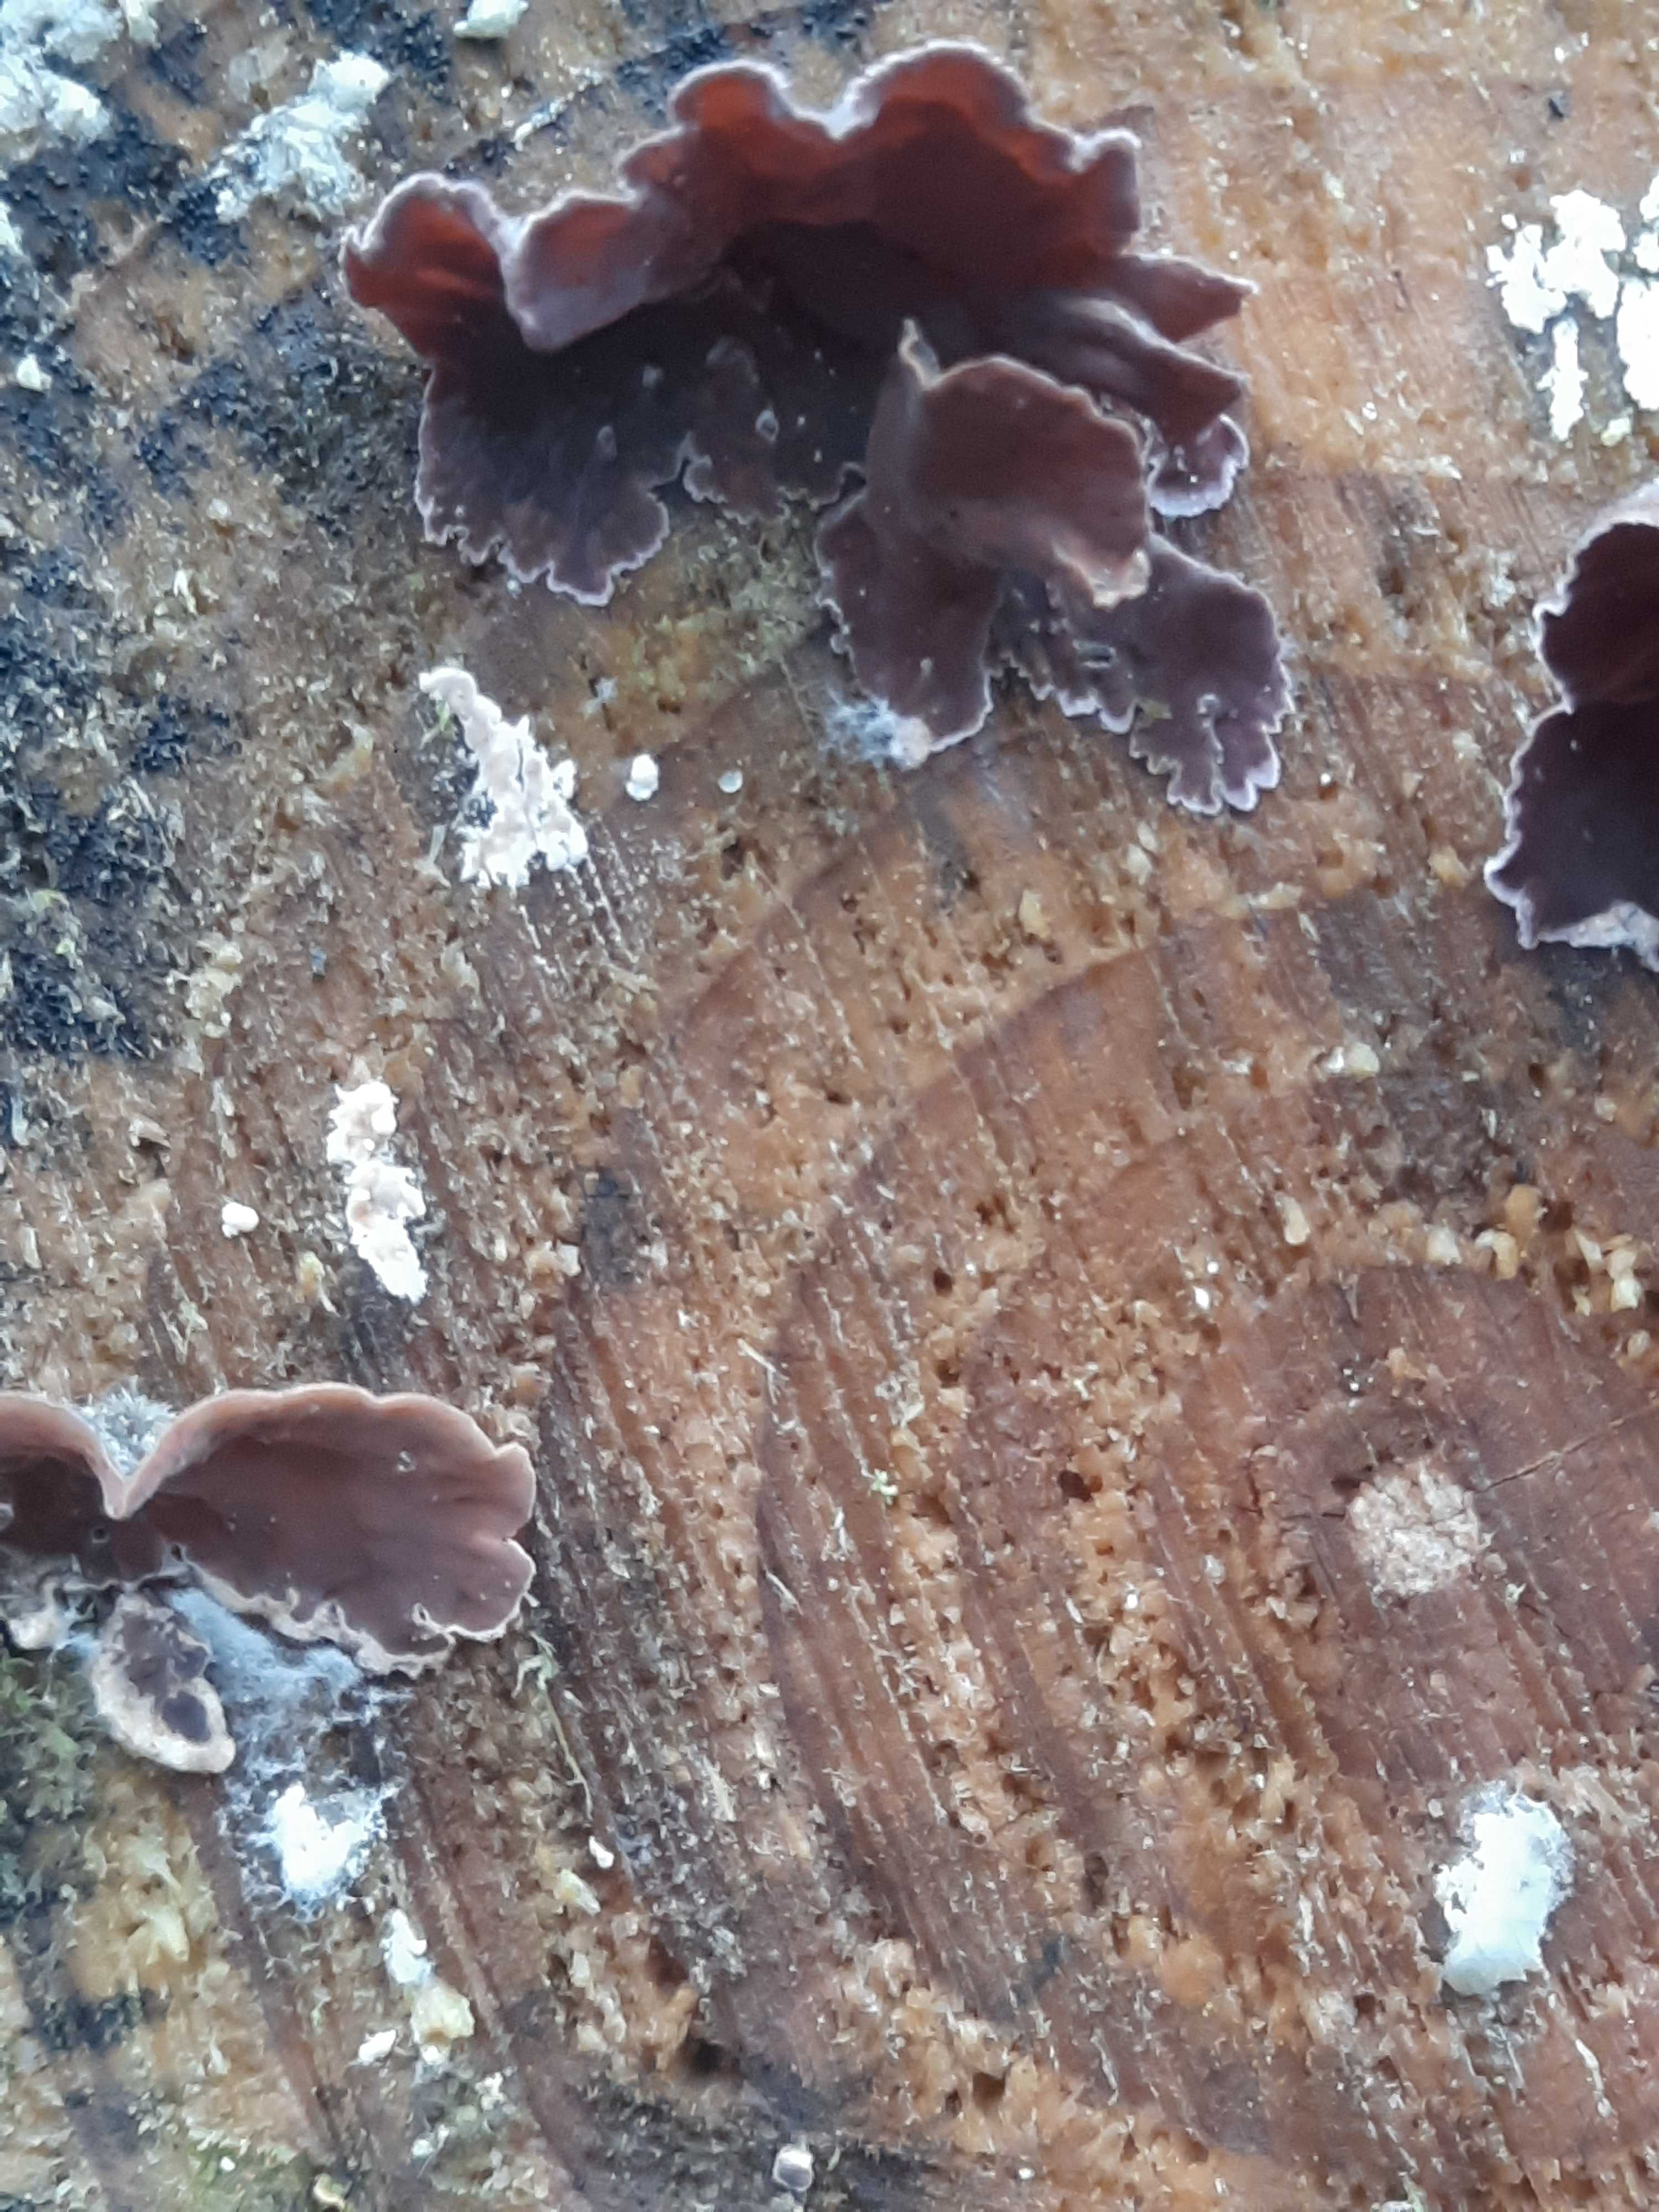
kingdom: Fungi
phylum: Basidiomycota
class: Agaricomycetes
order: Agaricales
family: Cyphellaceae
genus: Chondrostereum
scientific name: Chondrostereum purpureum
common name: purpurlædersvamp
